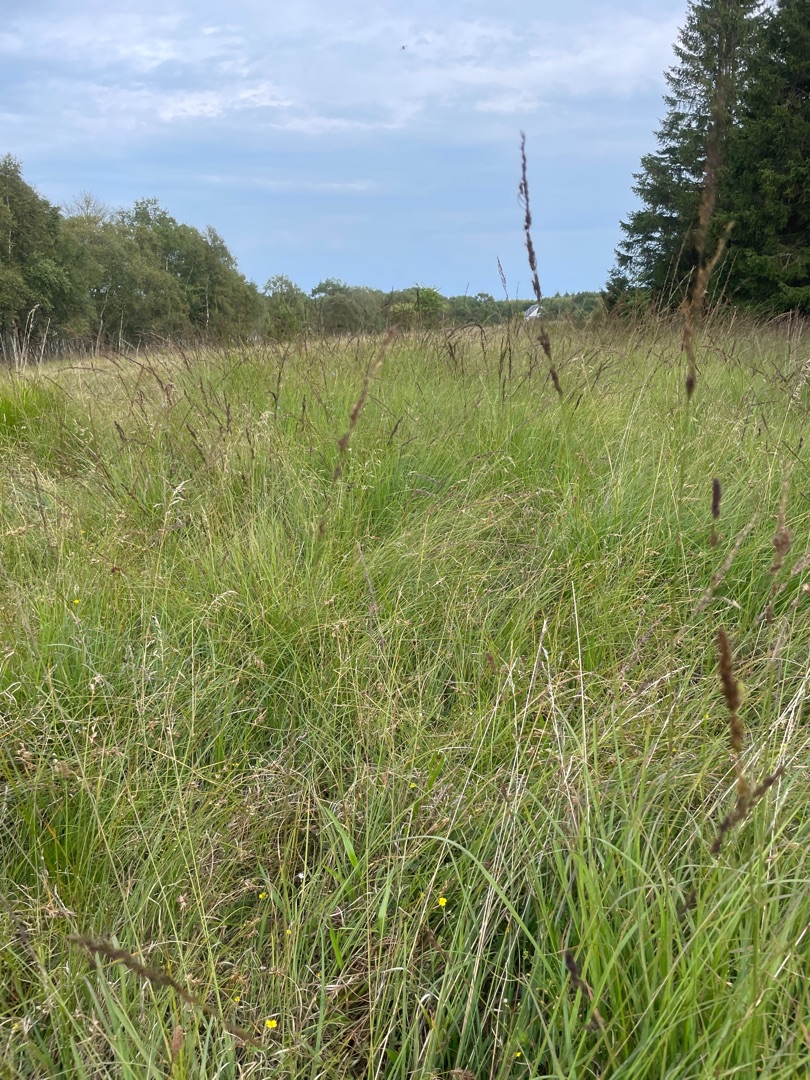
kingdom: Plantae
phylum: Tracheophyta
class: Liliopsida
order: Poales
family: Poaceae
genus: Molinia
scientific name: Molinia caerulea
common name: Blåtop
